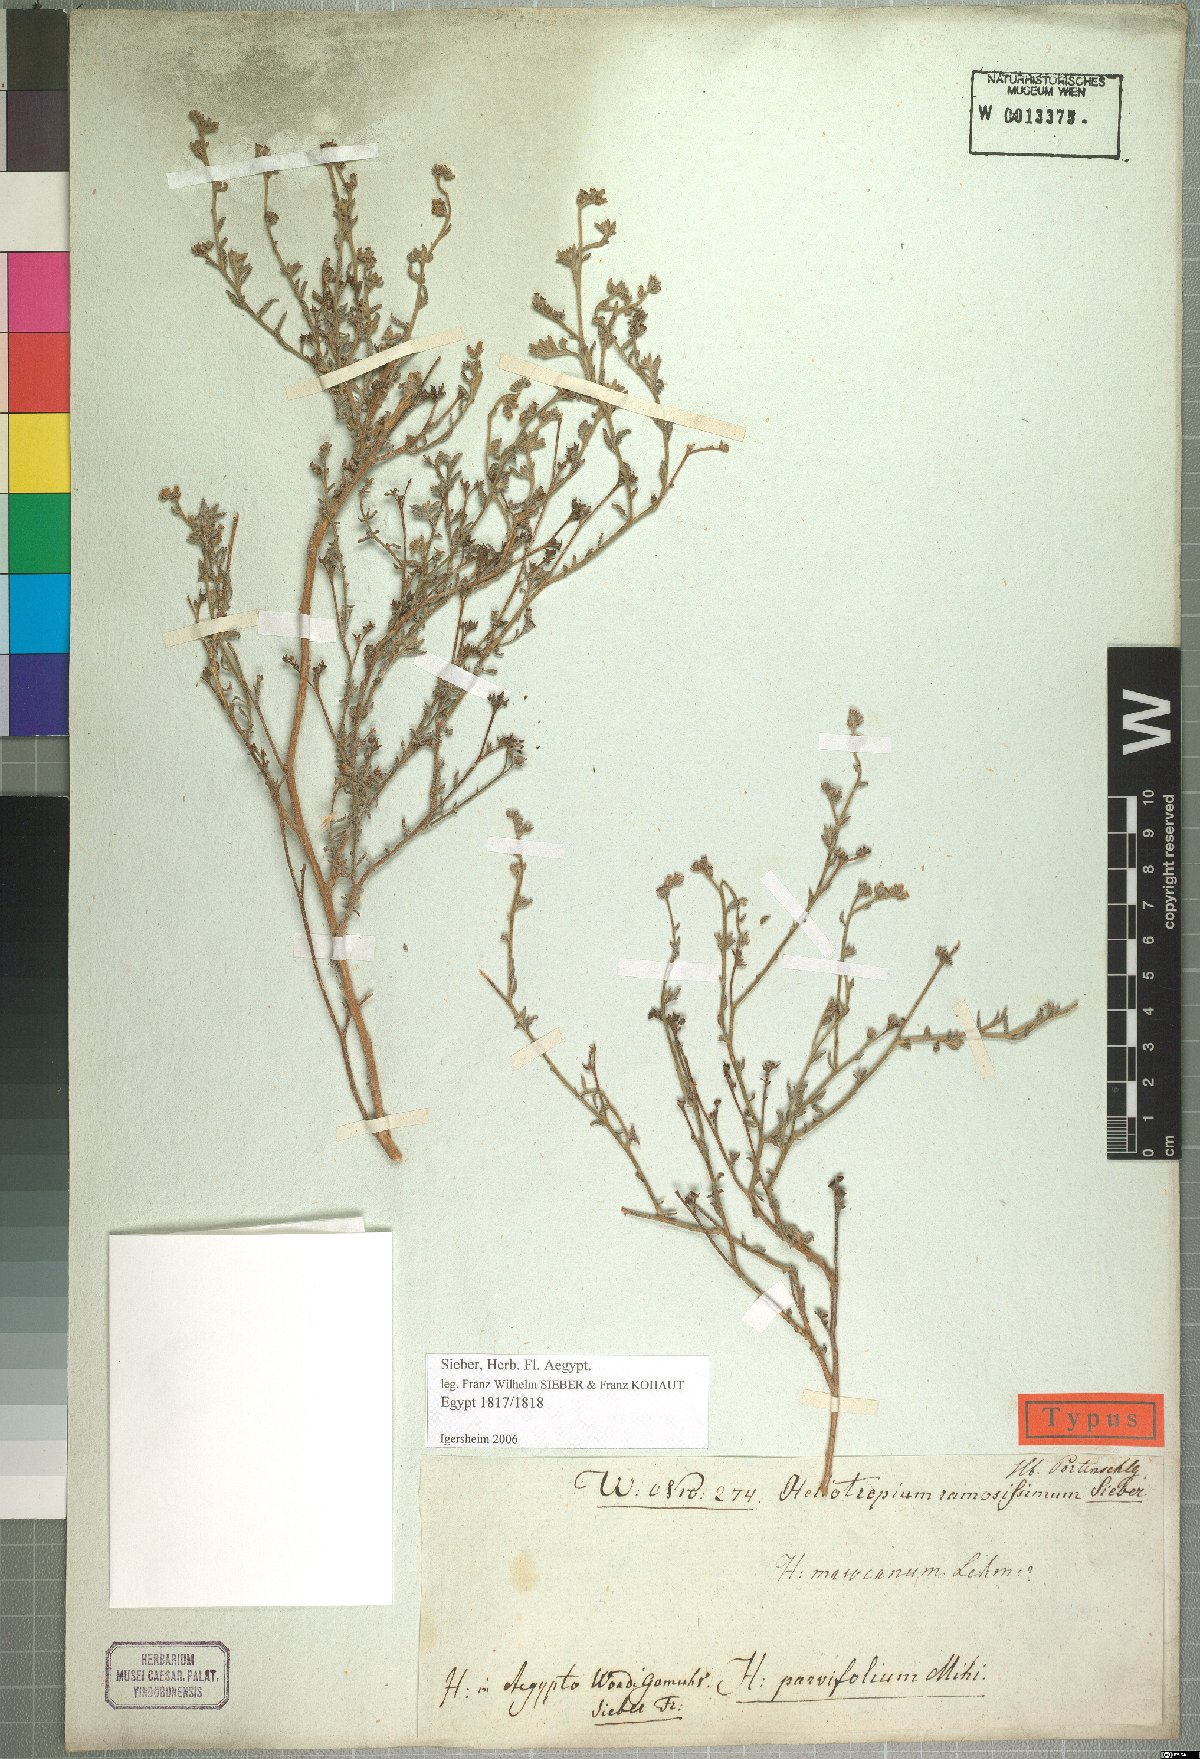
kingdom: Plantae
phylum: Tracheophyta
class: Magnoliopsida
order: Boraginales
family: Heliotropiaceae
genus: Heliotropium
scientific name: Heliotropium bacciferum
